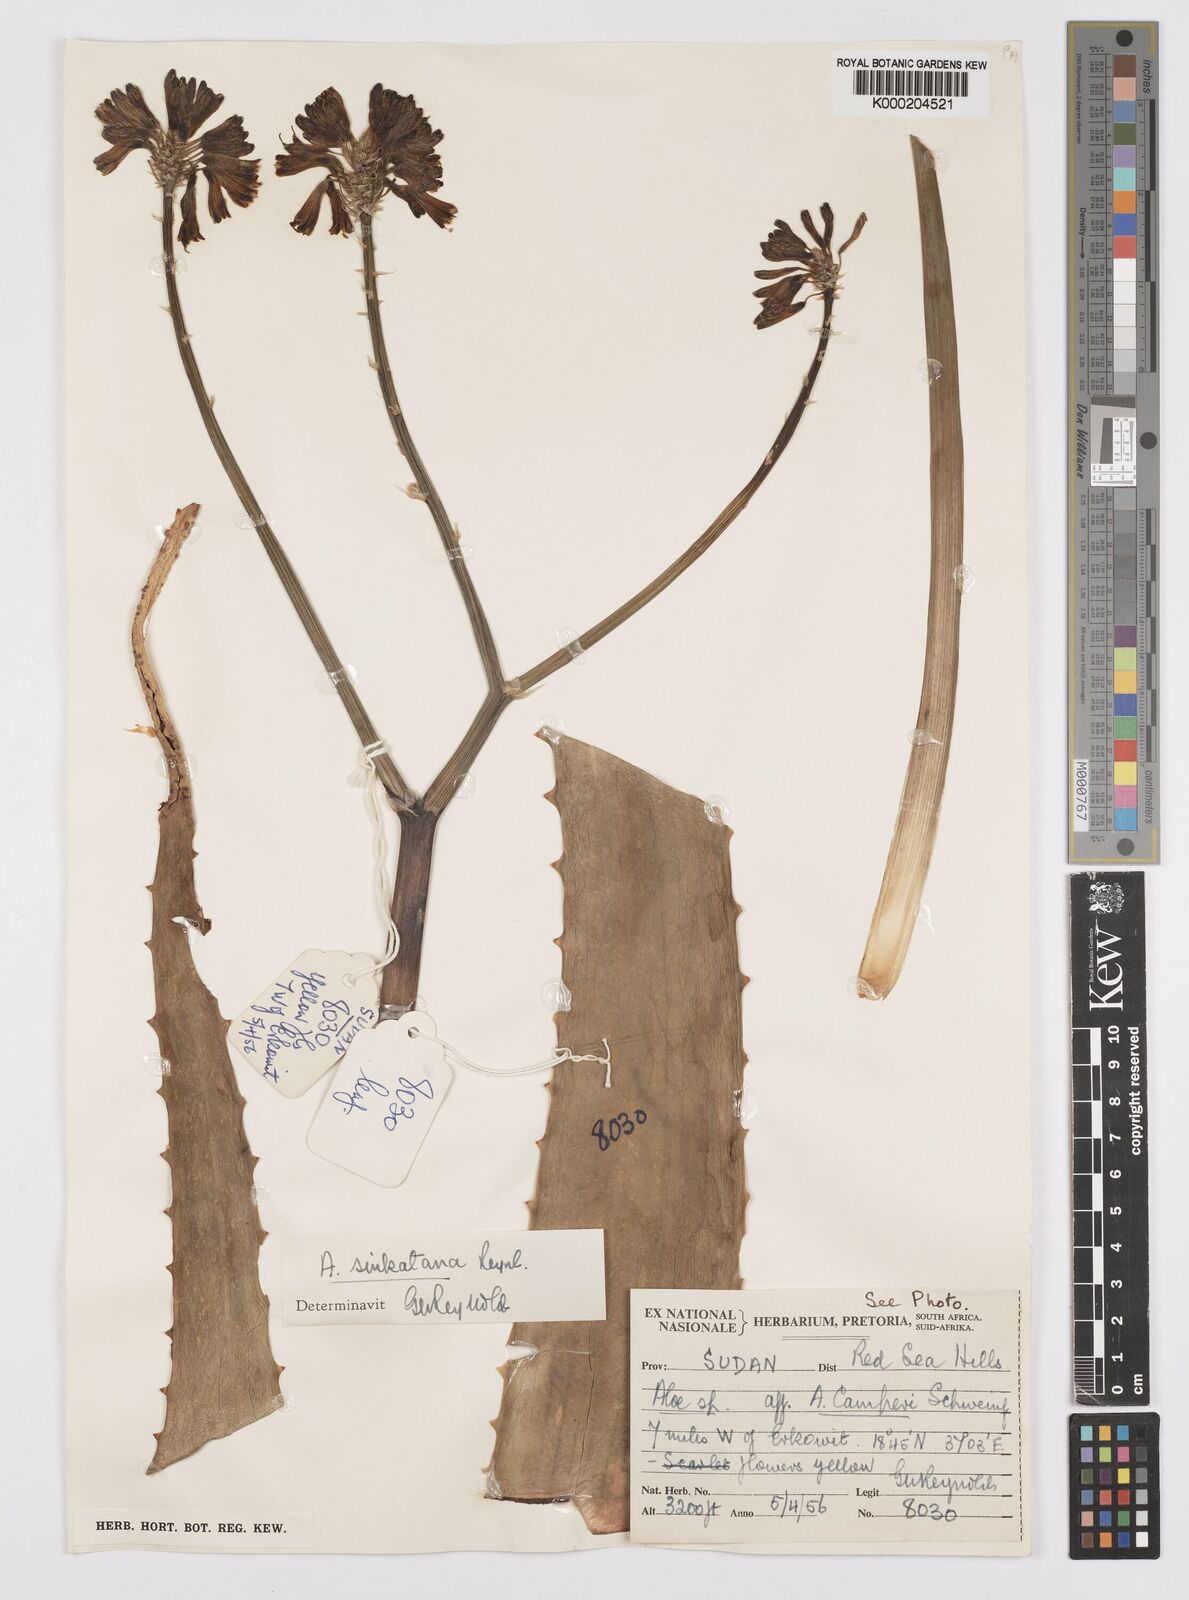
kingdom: Plantae
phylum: Tracheophyta
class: Liliopsida
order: Asparagales
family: Asphodelaceae
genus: Aloe
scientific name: Aloe sinkatana
